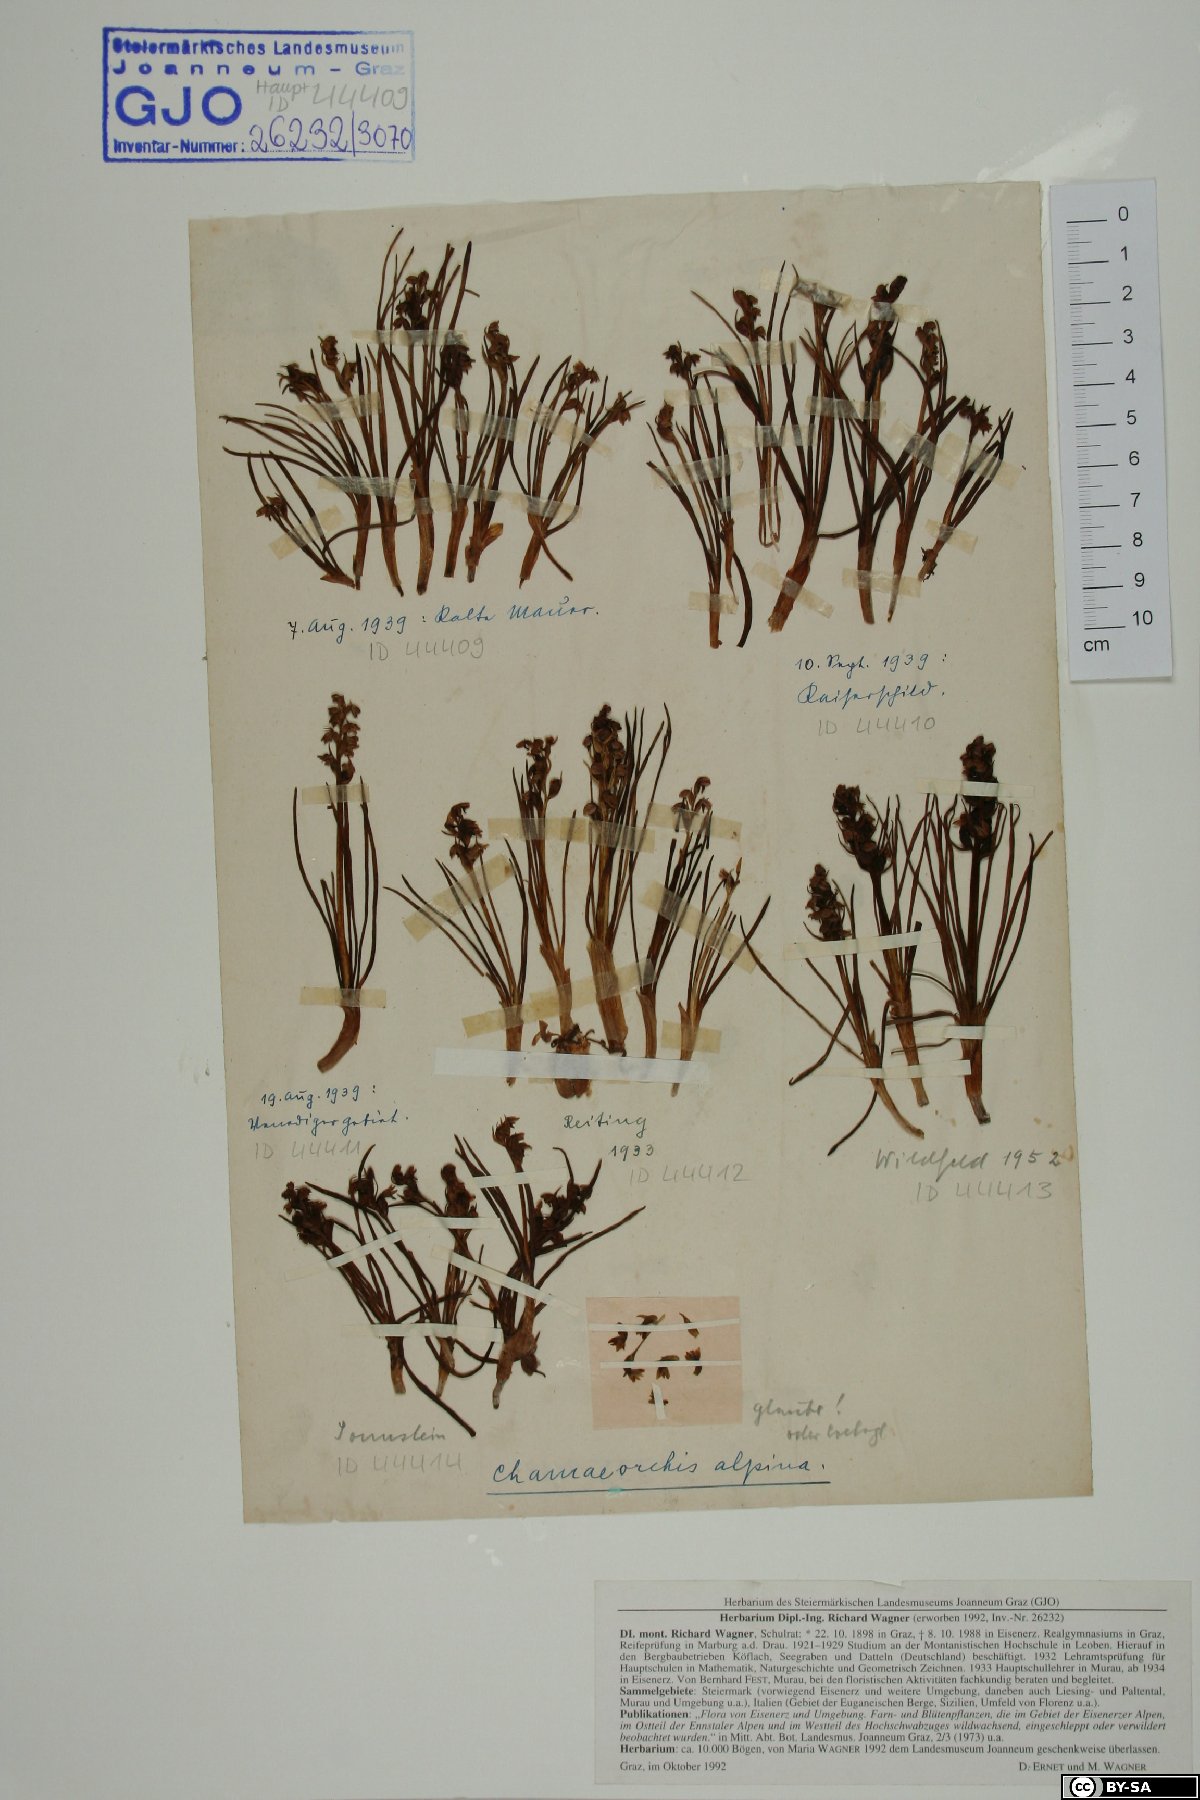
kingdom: Plantae
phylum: Tracheophyta
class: Liliopsida
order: Asparagales
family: Orchidaceae
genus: Chamorchis
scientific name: Chamorchis alpina
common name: Alpine chamorchis
